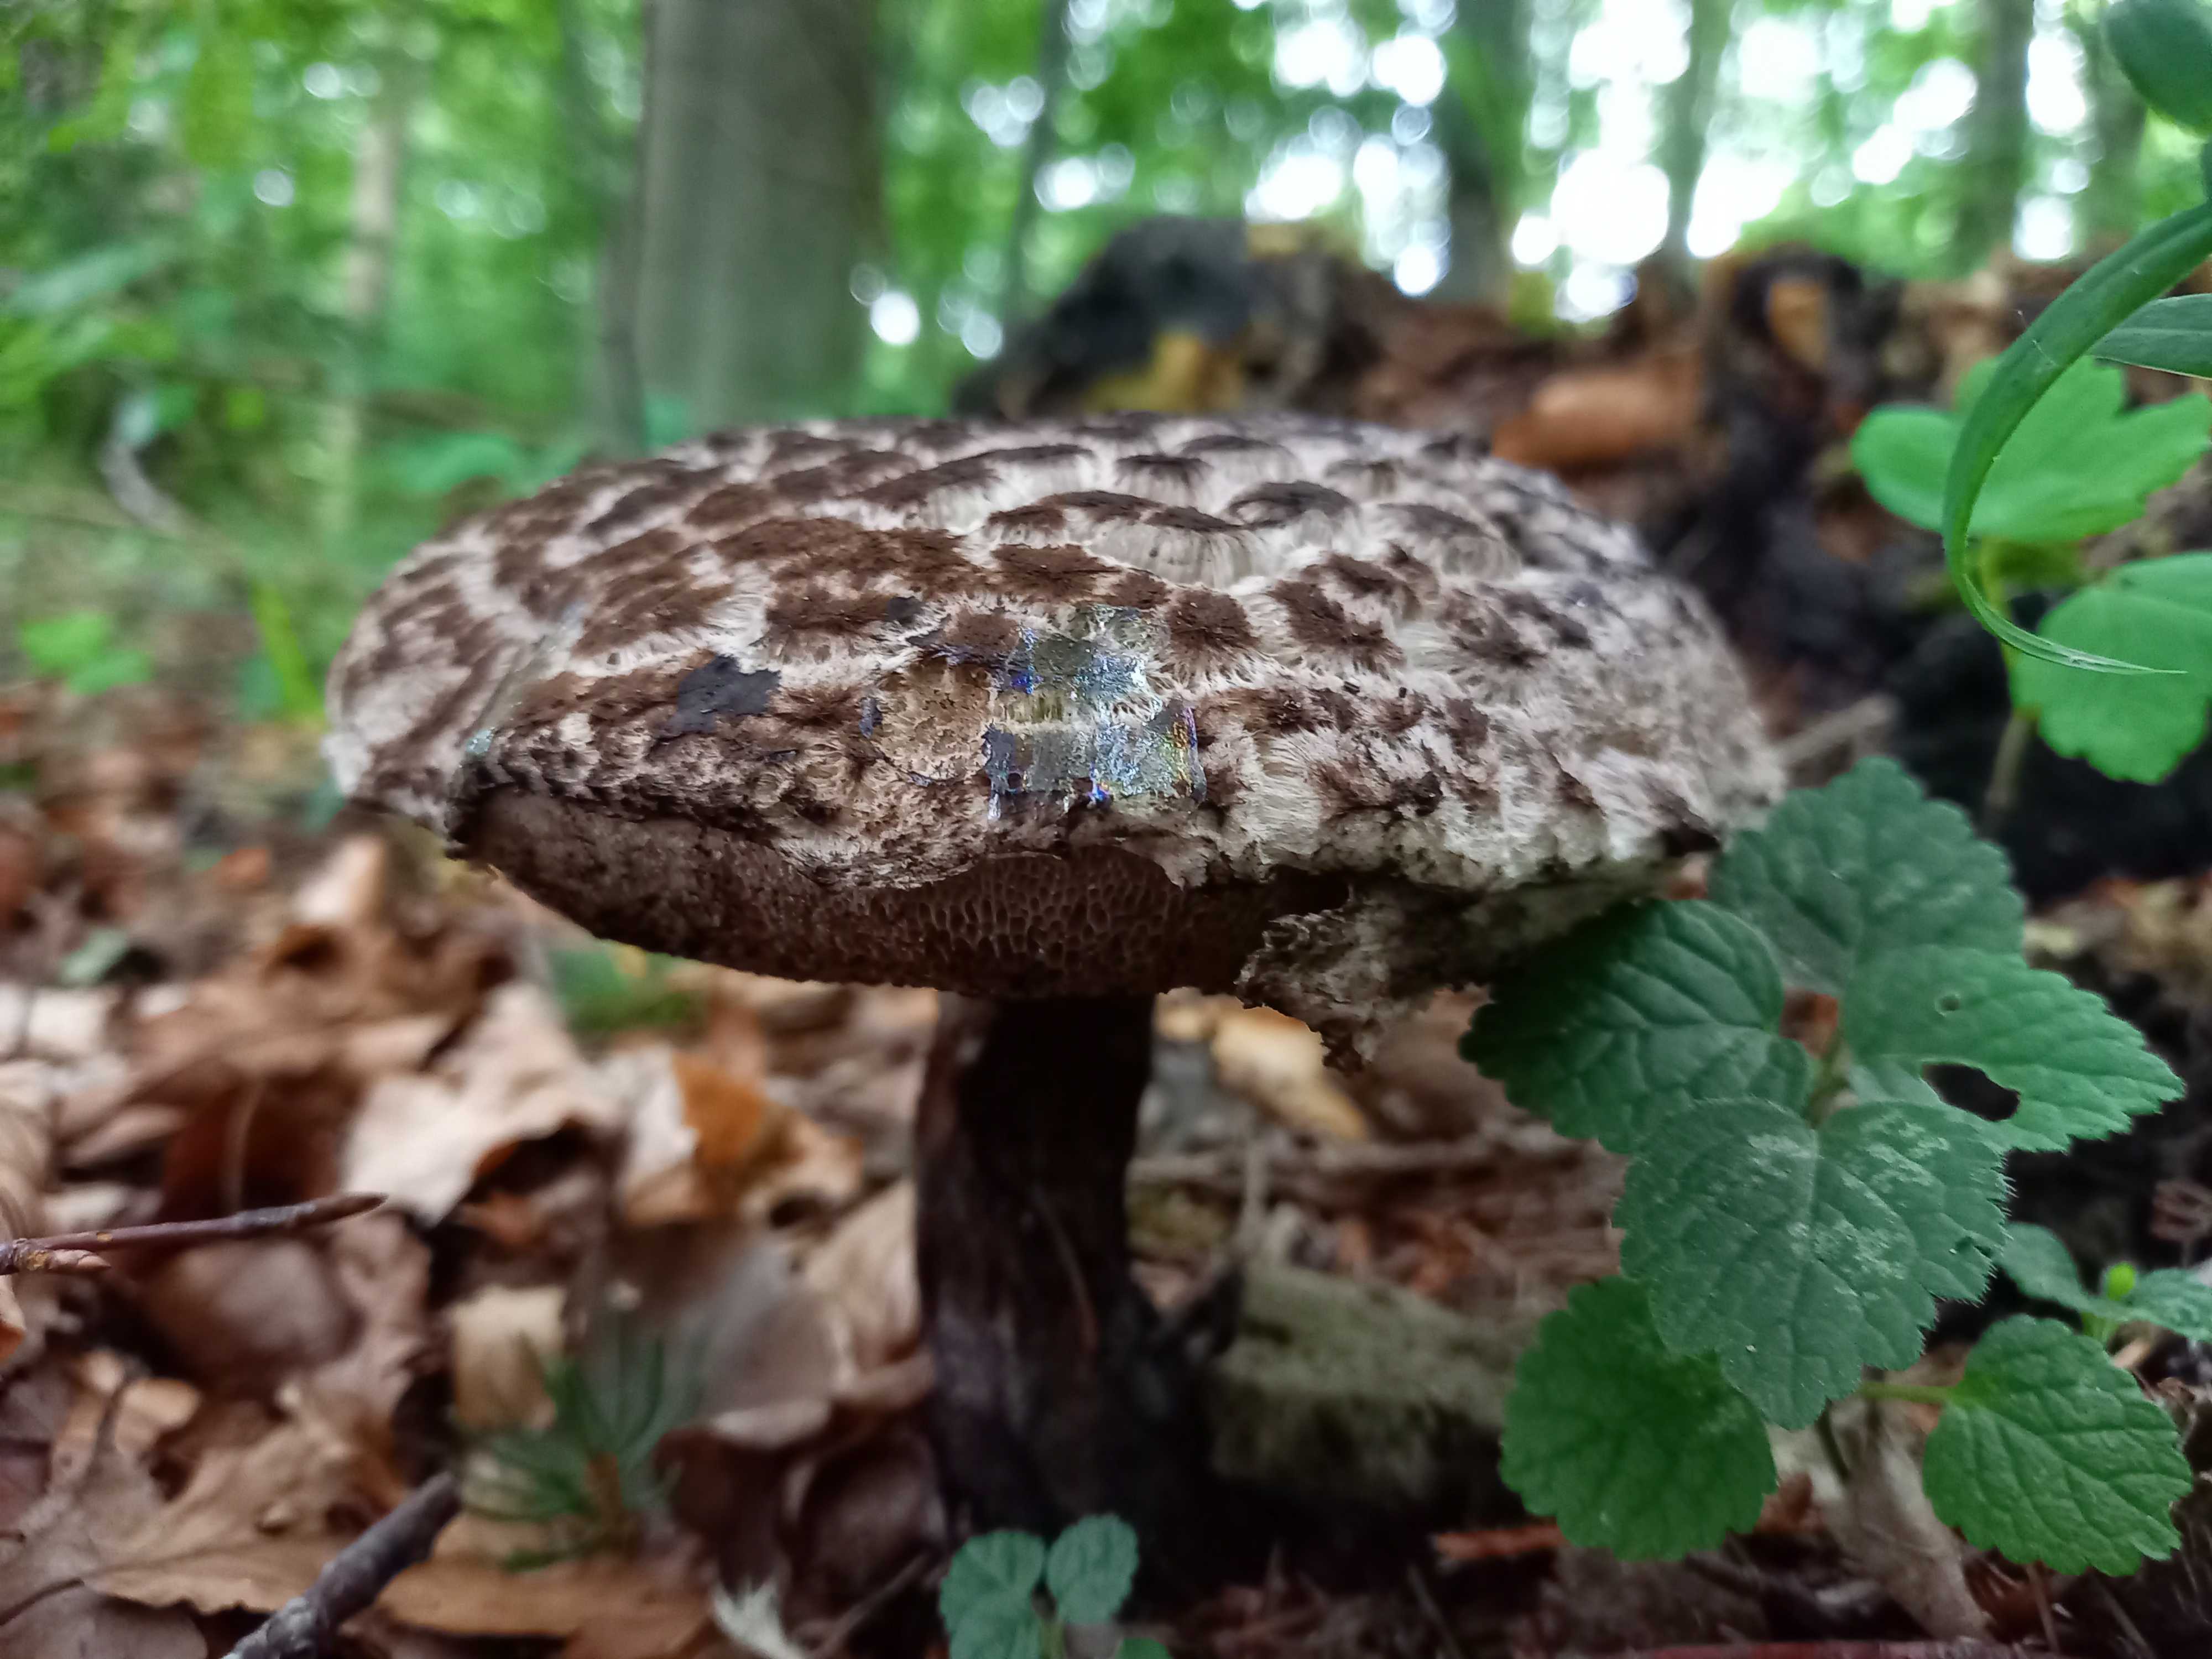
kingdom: Fungi
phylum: Basidiomycota
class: Agaricomycetes
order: Boletales
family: Boletaceae
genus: Strobilomyces
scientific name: Strobilomyces strobilaceus
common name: koglerørhat
